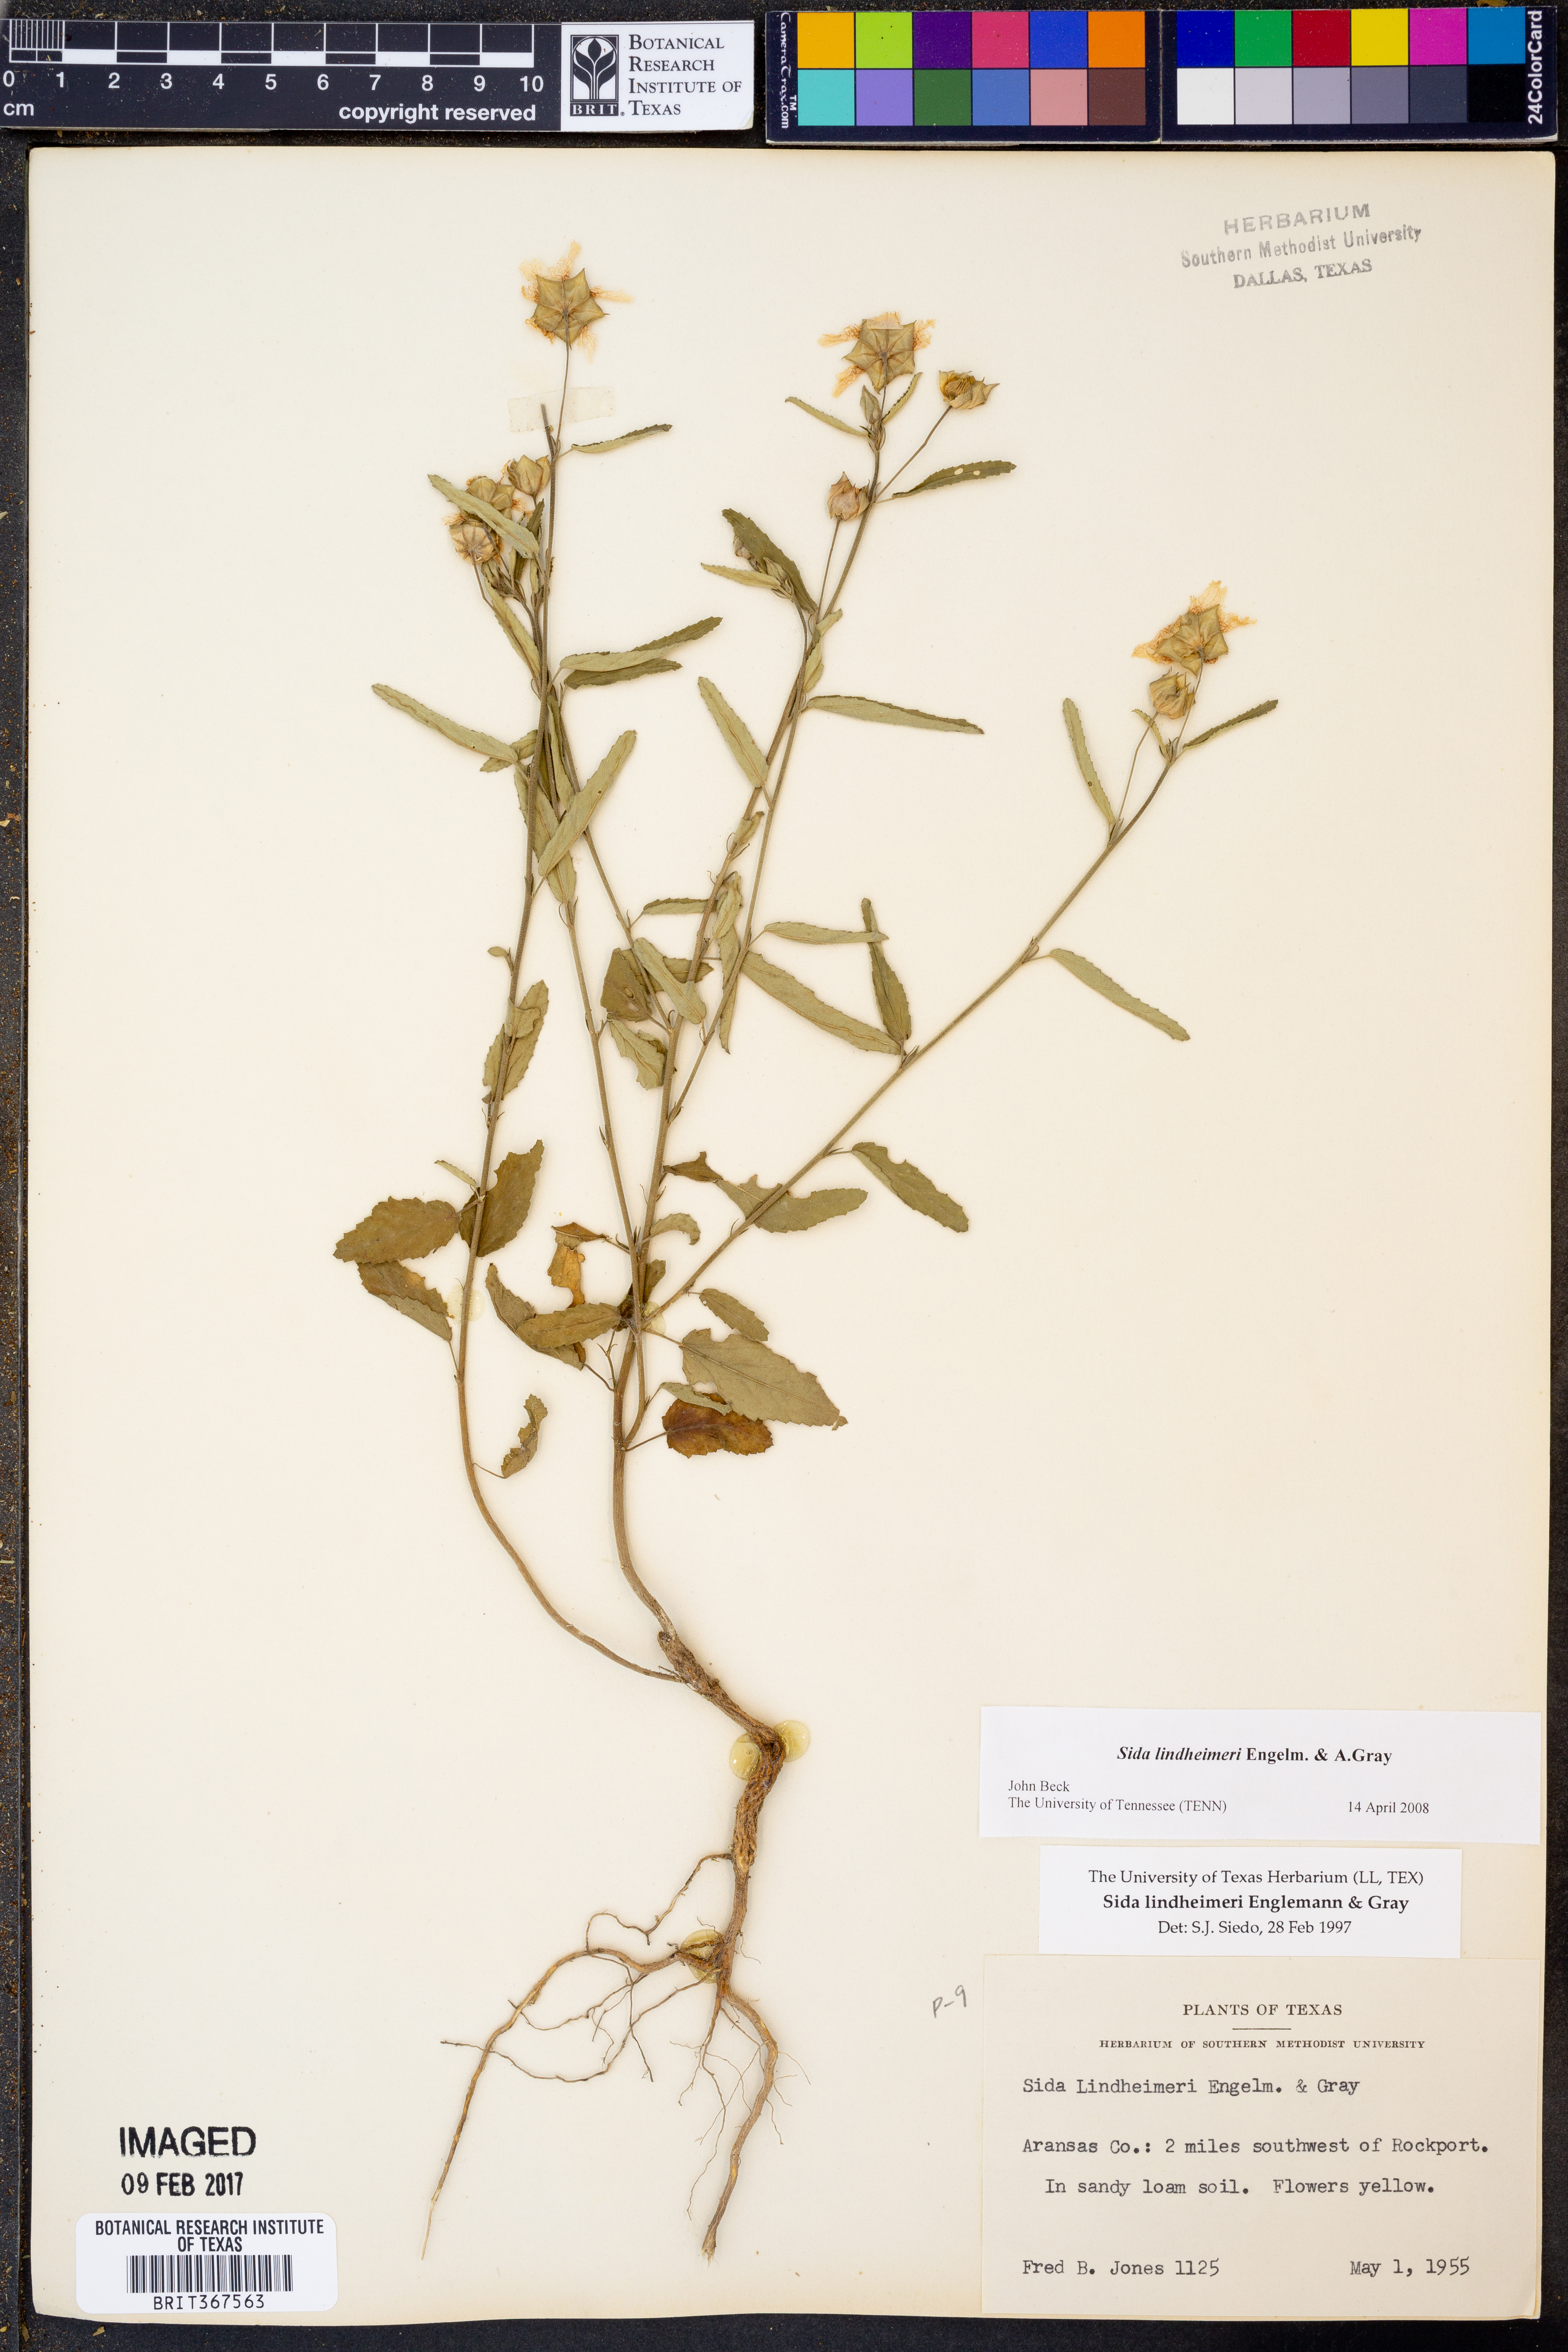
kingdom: Plantae
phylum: Tracheophyta
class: Magnoliopsida
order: Malvales
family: Malvaceae
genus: Sida
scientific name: Sida lindheimeri
